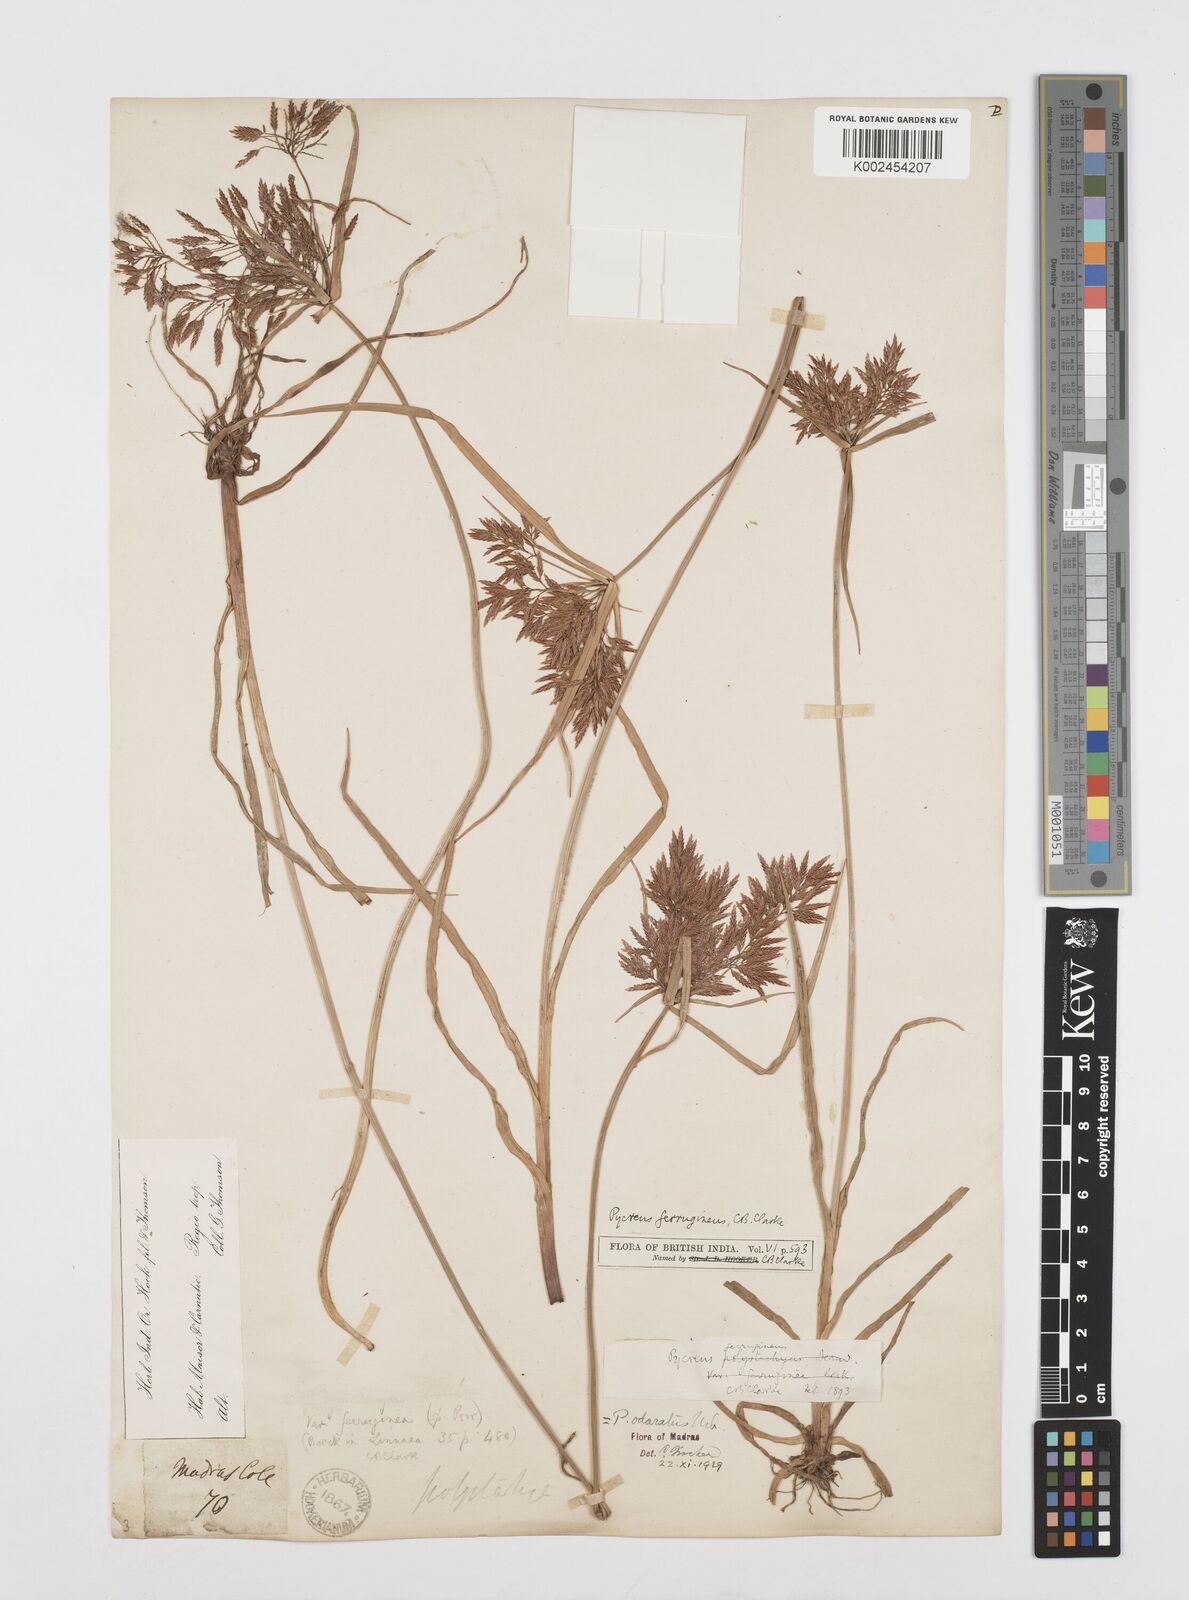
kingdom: Plantae
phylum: Tracheophyta
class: Liliopsida
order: Poales
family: Cyperaceae
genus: Cyperus
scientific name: Cyperus polystachyos
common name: Bunchy flat sedge
